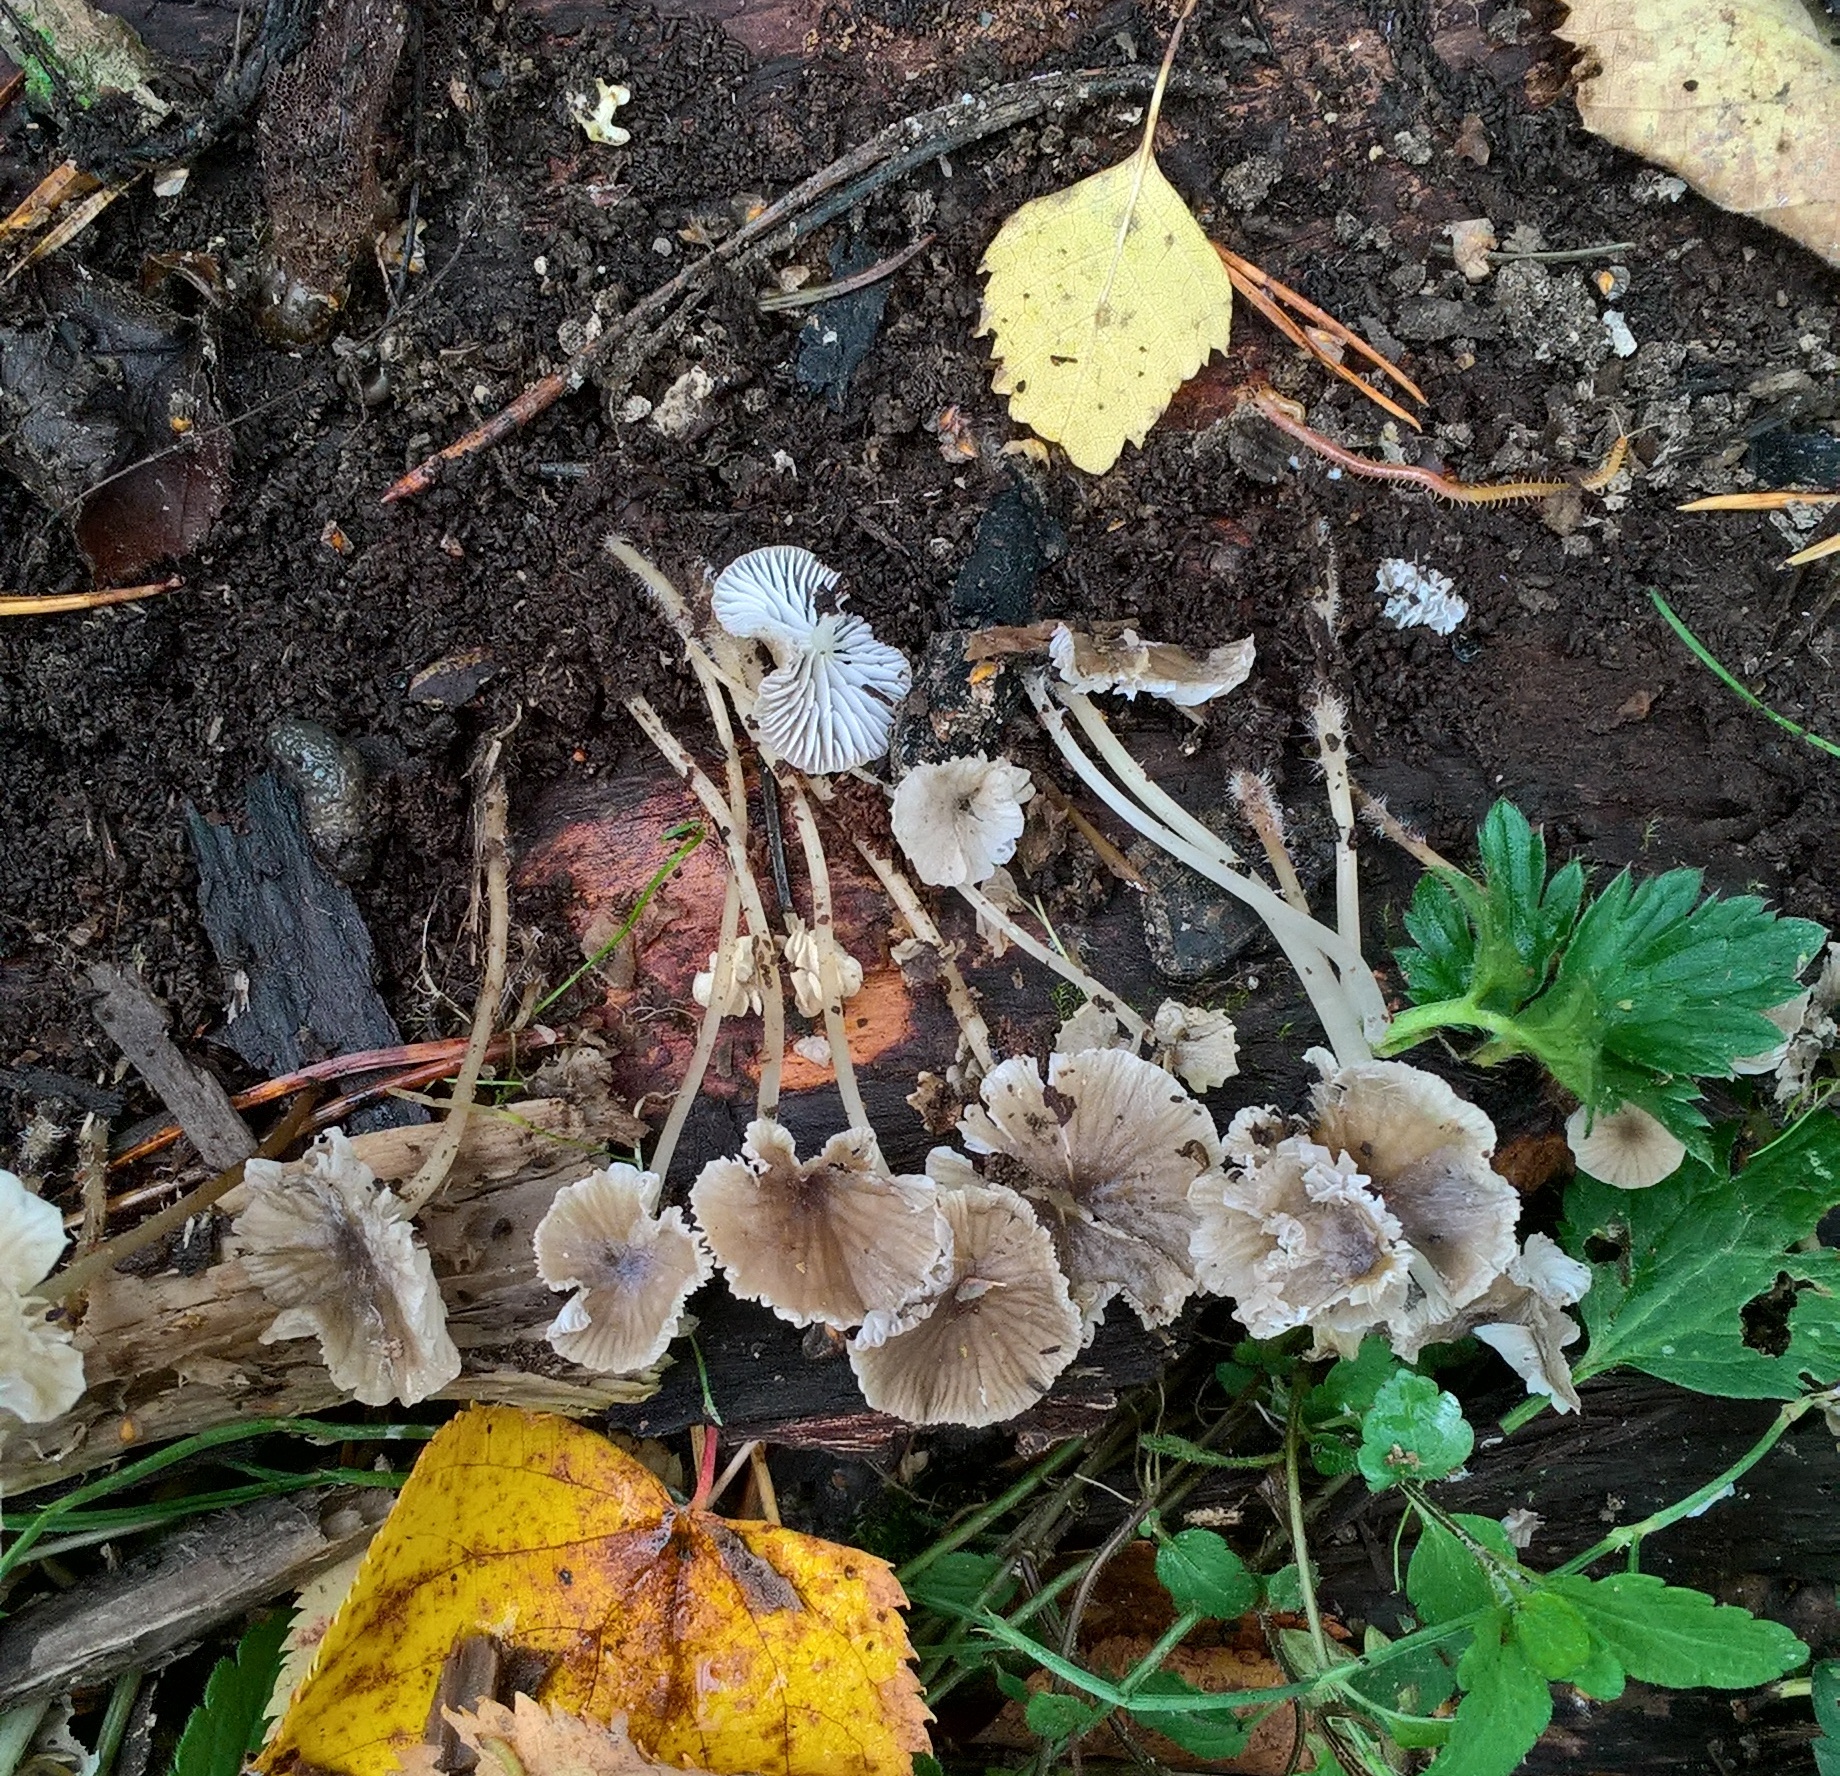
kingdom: Fungi
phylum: Basidiomycota
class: Agaricomycetes
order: Agaricales
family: Mycenaceae
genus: Hydropus
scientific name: Hydropus moserianus
